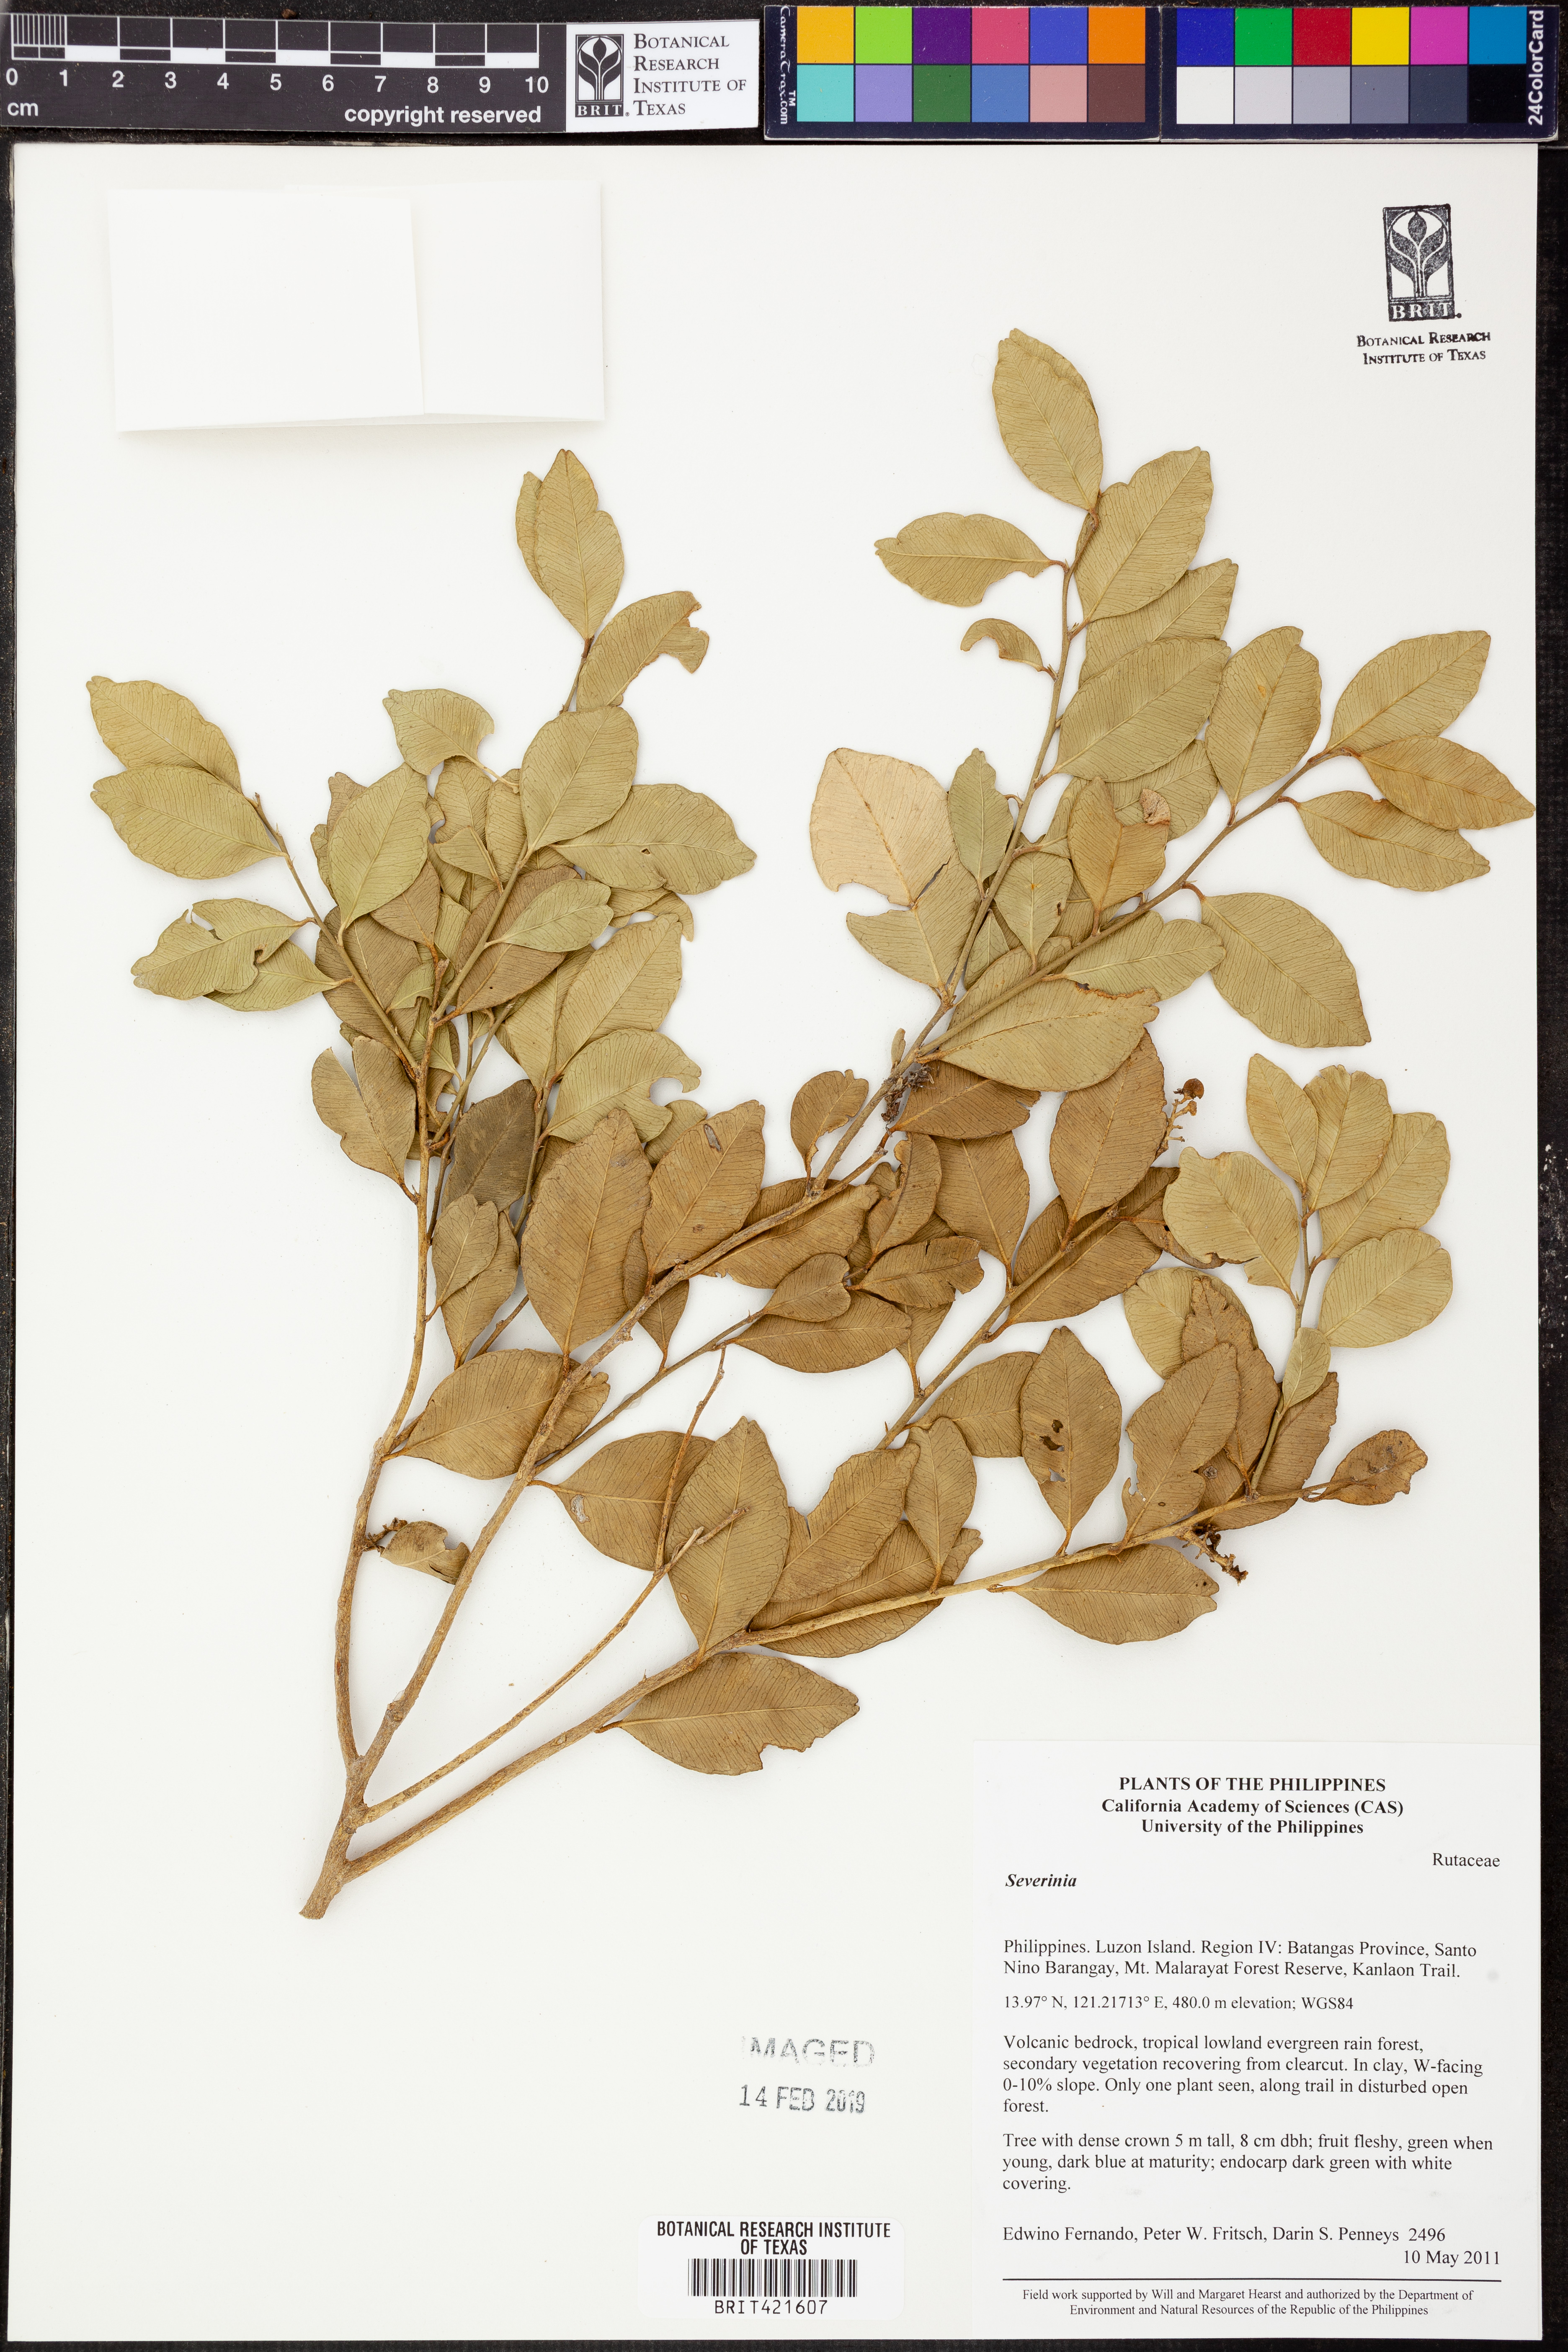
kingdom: Animalia
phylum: Arthropoda
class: Insecta
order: Mantodea
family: Toxoderidae
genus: Severinia
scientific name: Severinia
